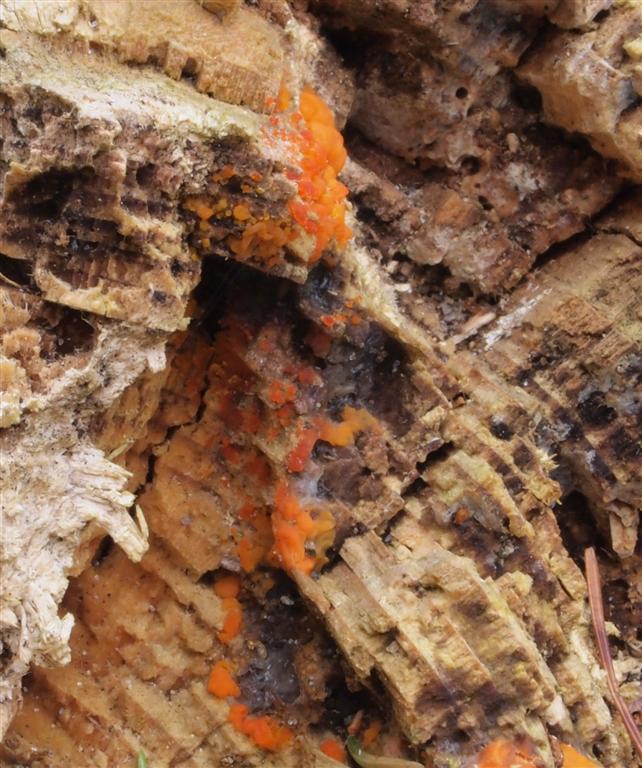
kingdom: Fungi
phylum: Basidiomycota
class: Dacrymycetes
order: Dacrymycetales
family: Dacrymycetaceae
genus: Dacrymyces
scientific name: Dacrymyces stillatus
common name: almindelig tåresvamp
